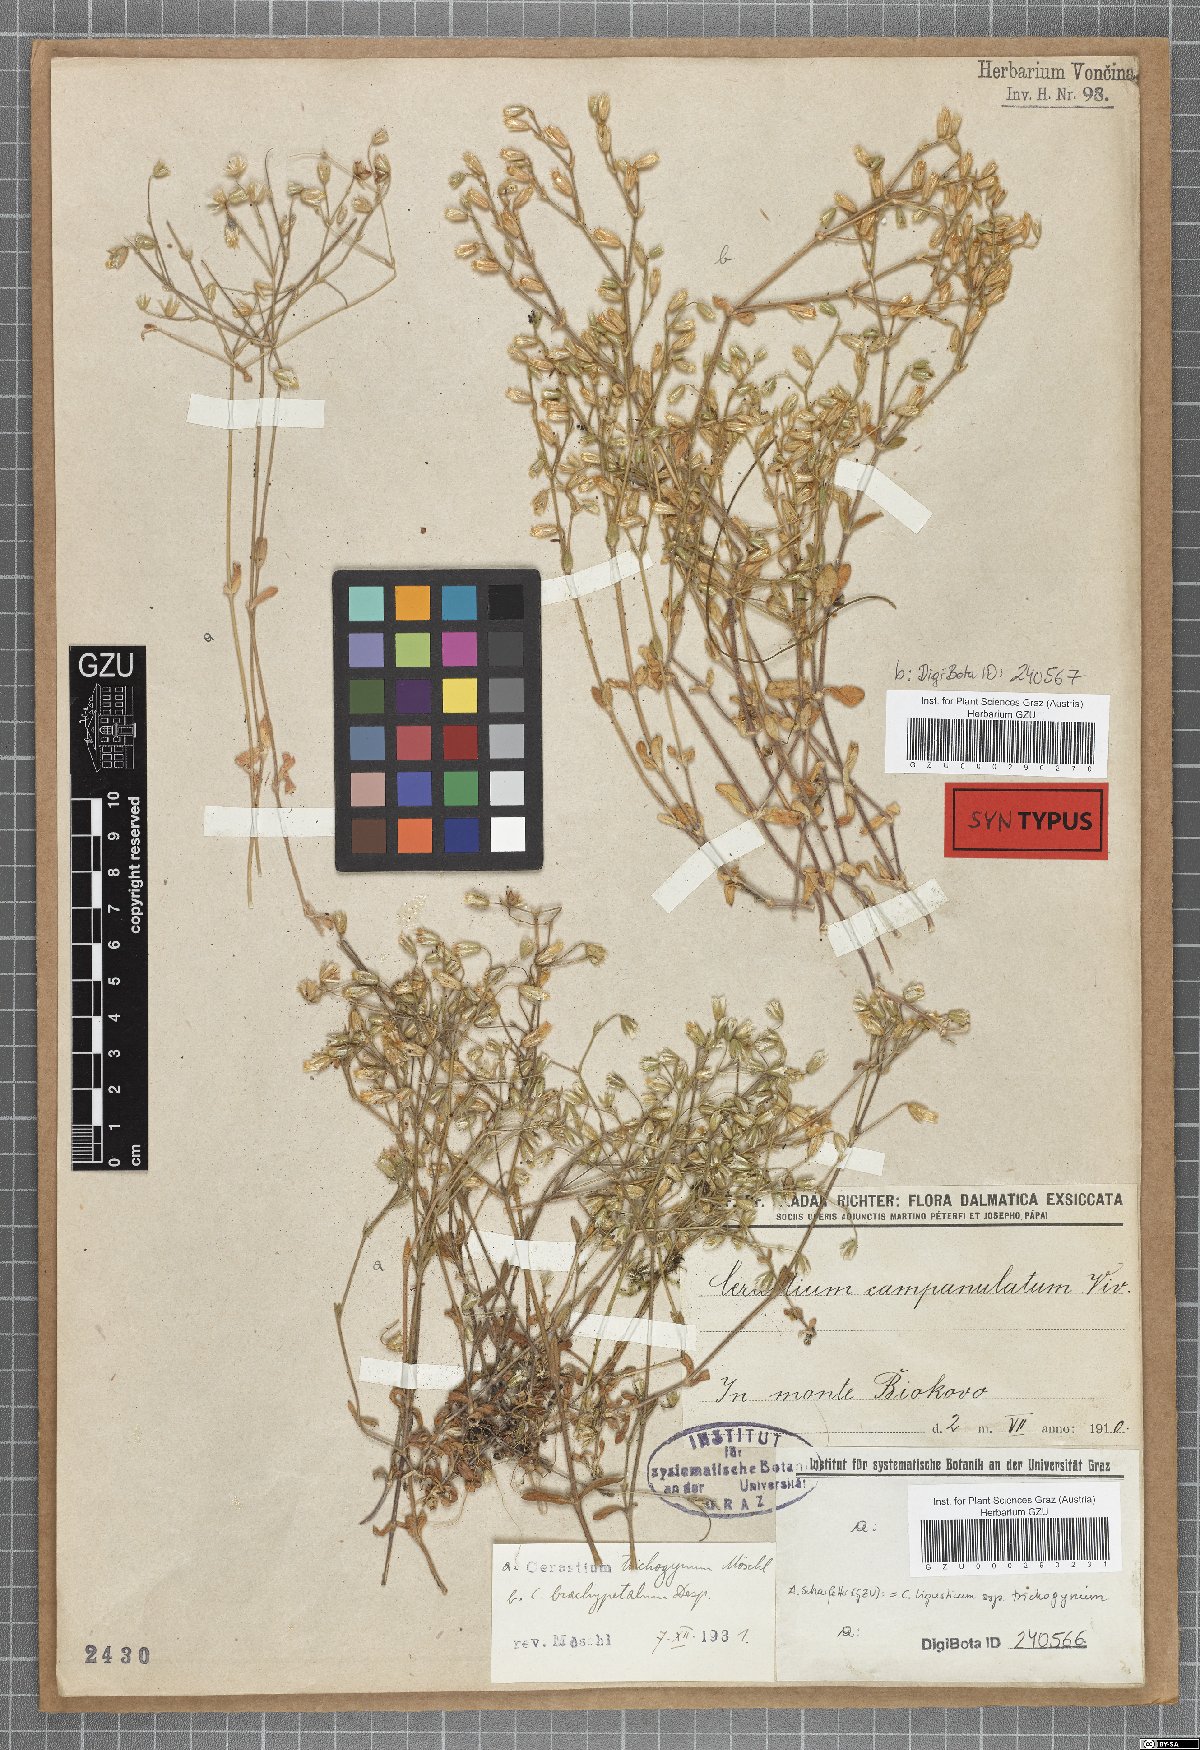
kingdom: Plantae
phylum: Tracheophyta
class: Magnoliopsida
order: Caryophyllales
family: Caryophyllaceae
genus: Cerastium
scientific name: Cerastium ligusticum
